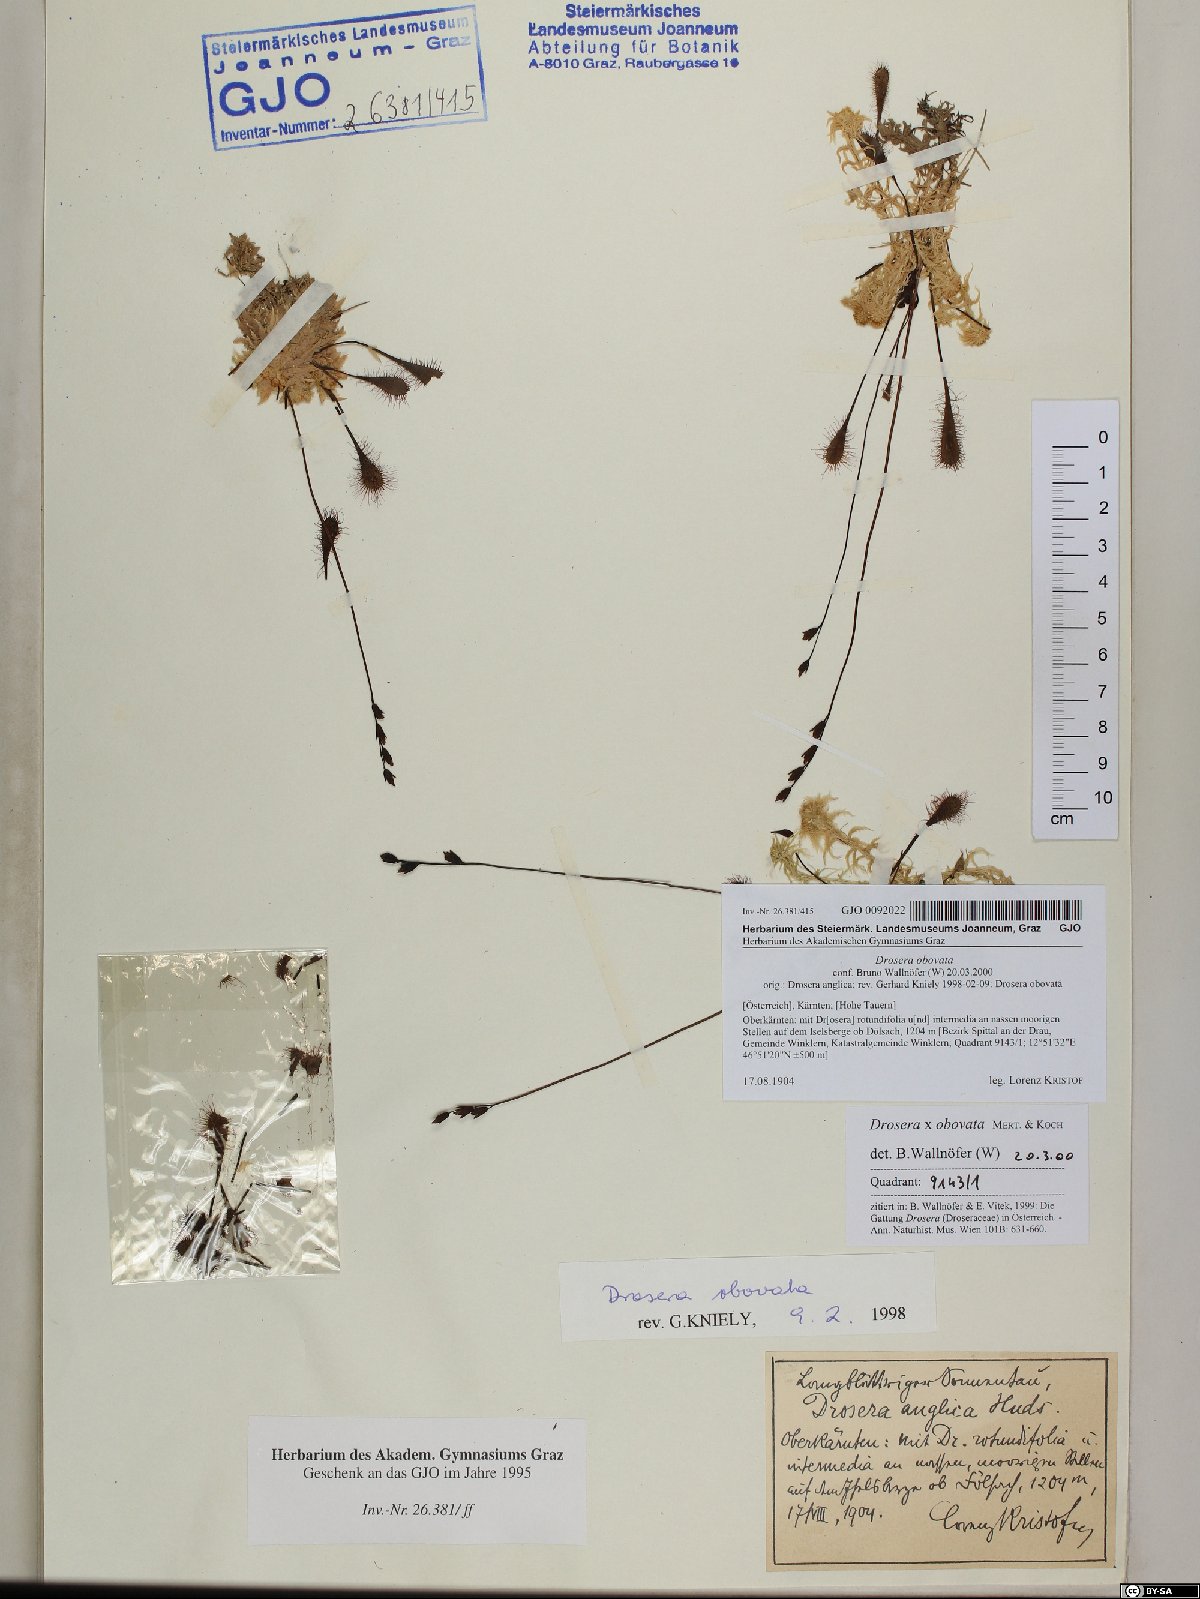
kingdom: Plantae
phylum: Tracheophyta
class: Magnoliopsida
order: Caryophyllales
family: Droseraceae
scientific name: Droseraceae
